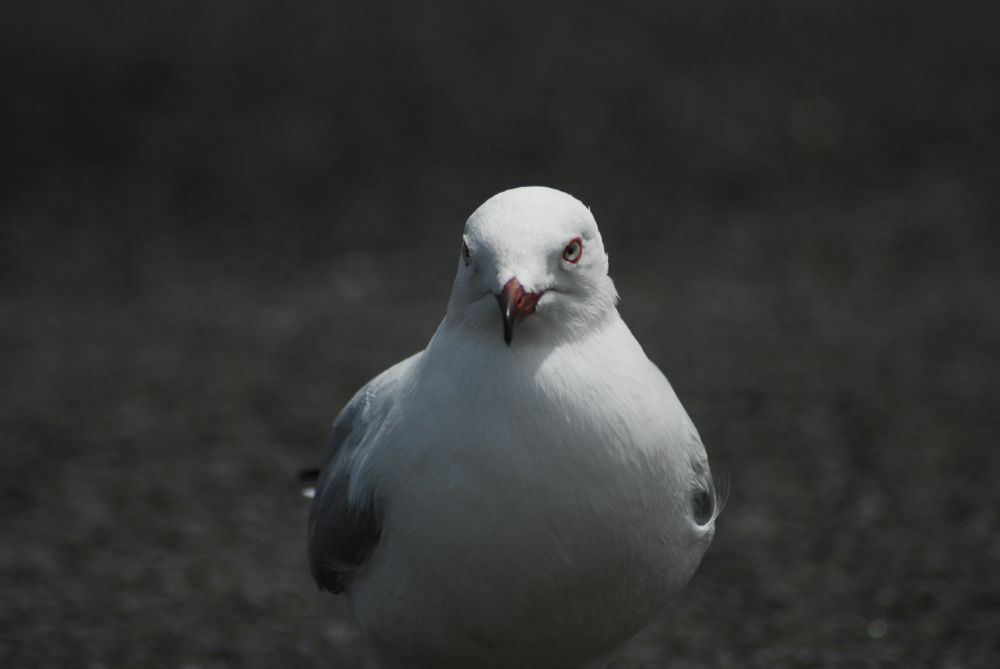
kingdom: Animalia
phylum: Chordata
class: Aves
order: Charadriiformes
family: Laridae
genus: Chroicocephalus
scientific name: Chroicocephalus novaehollandiae
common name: Silver gull
